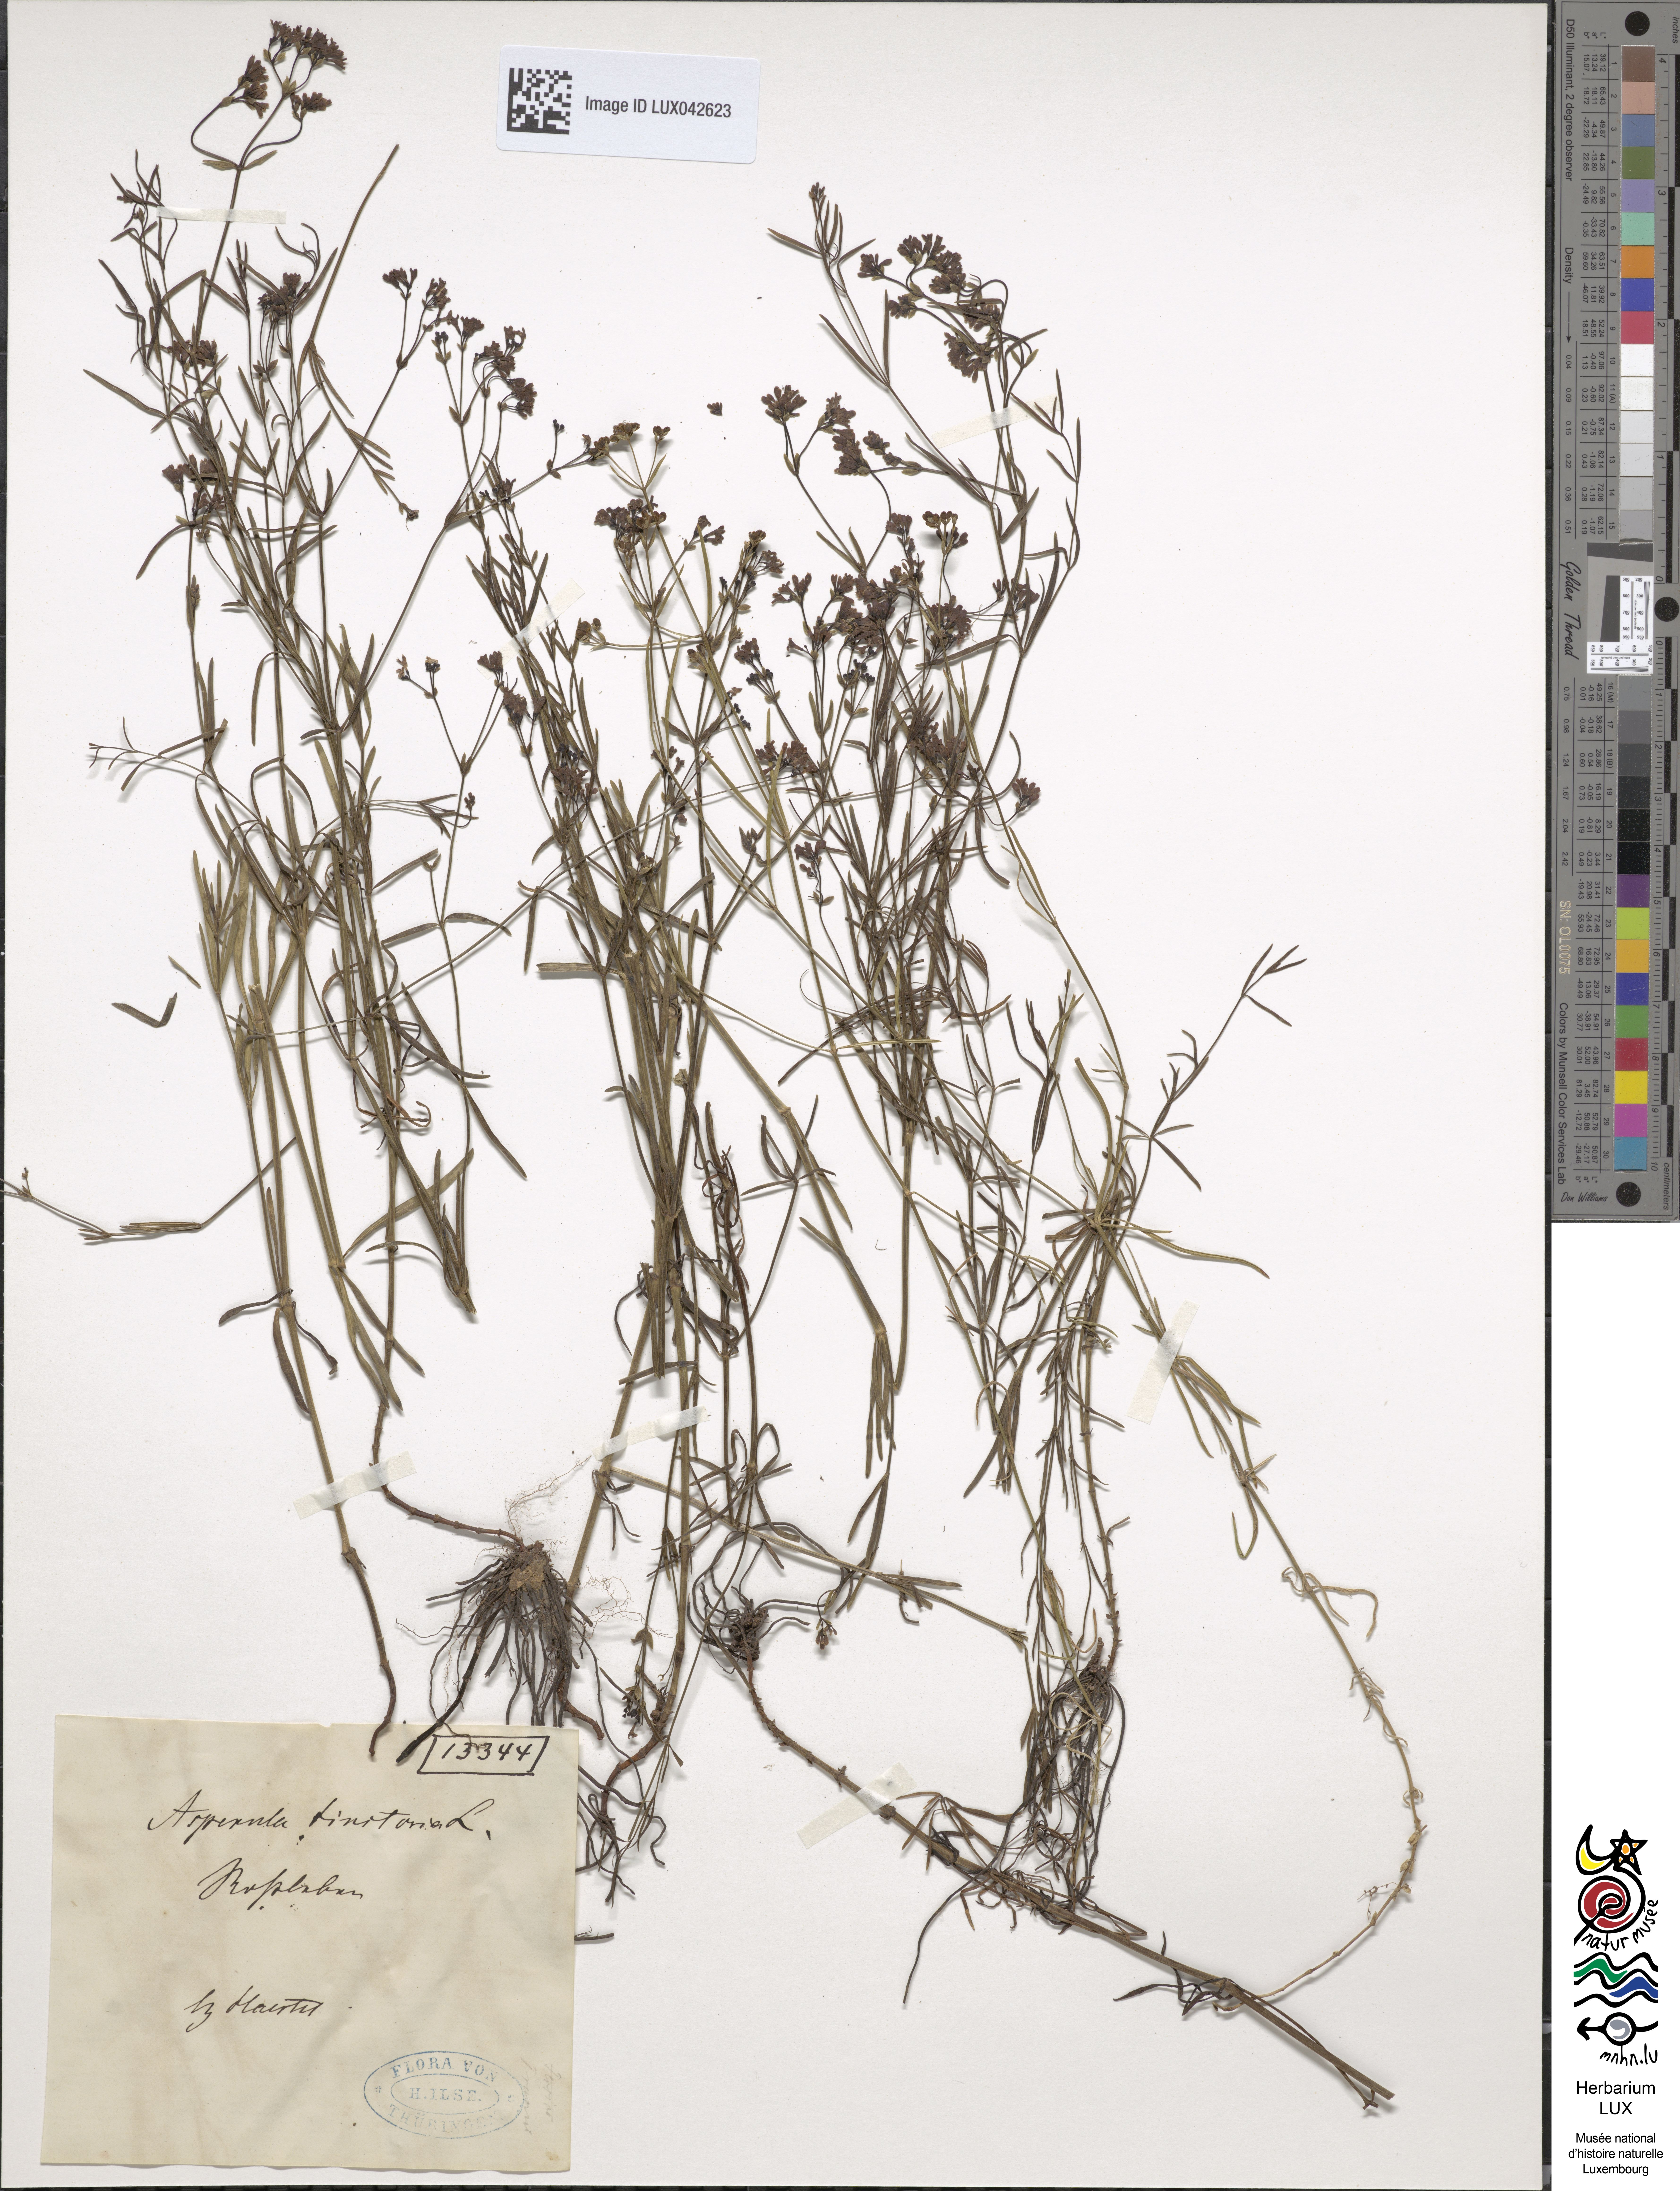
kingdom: Plantae
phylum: Tracheophyta
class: Magnoliopsida
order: Gentianales
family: Rubiaceae
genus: Asperula
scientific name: Asperula tinctoria
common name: Dyer's woodruff
